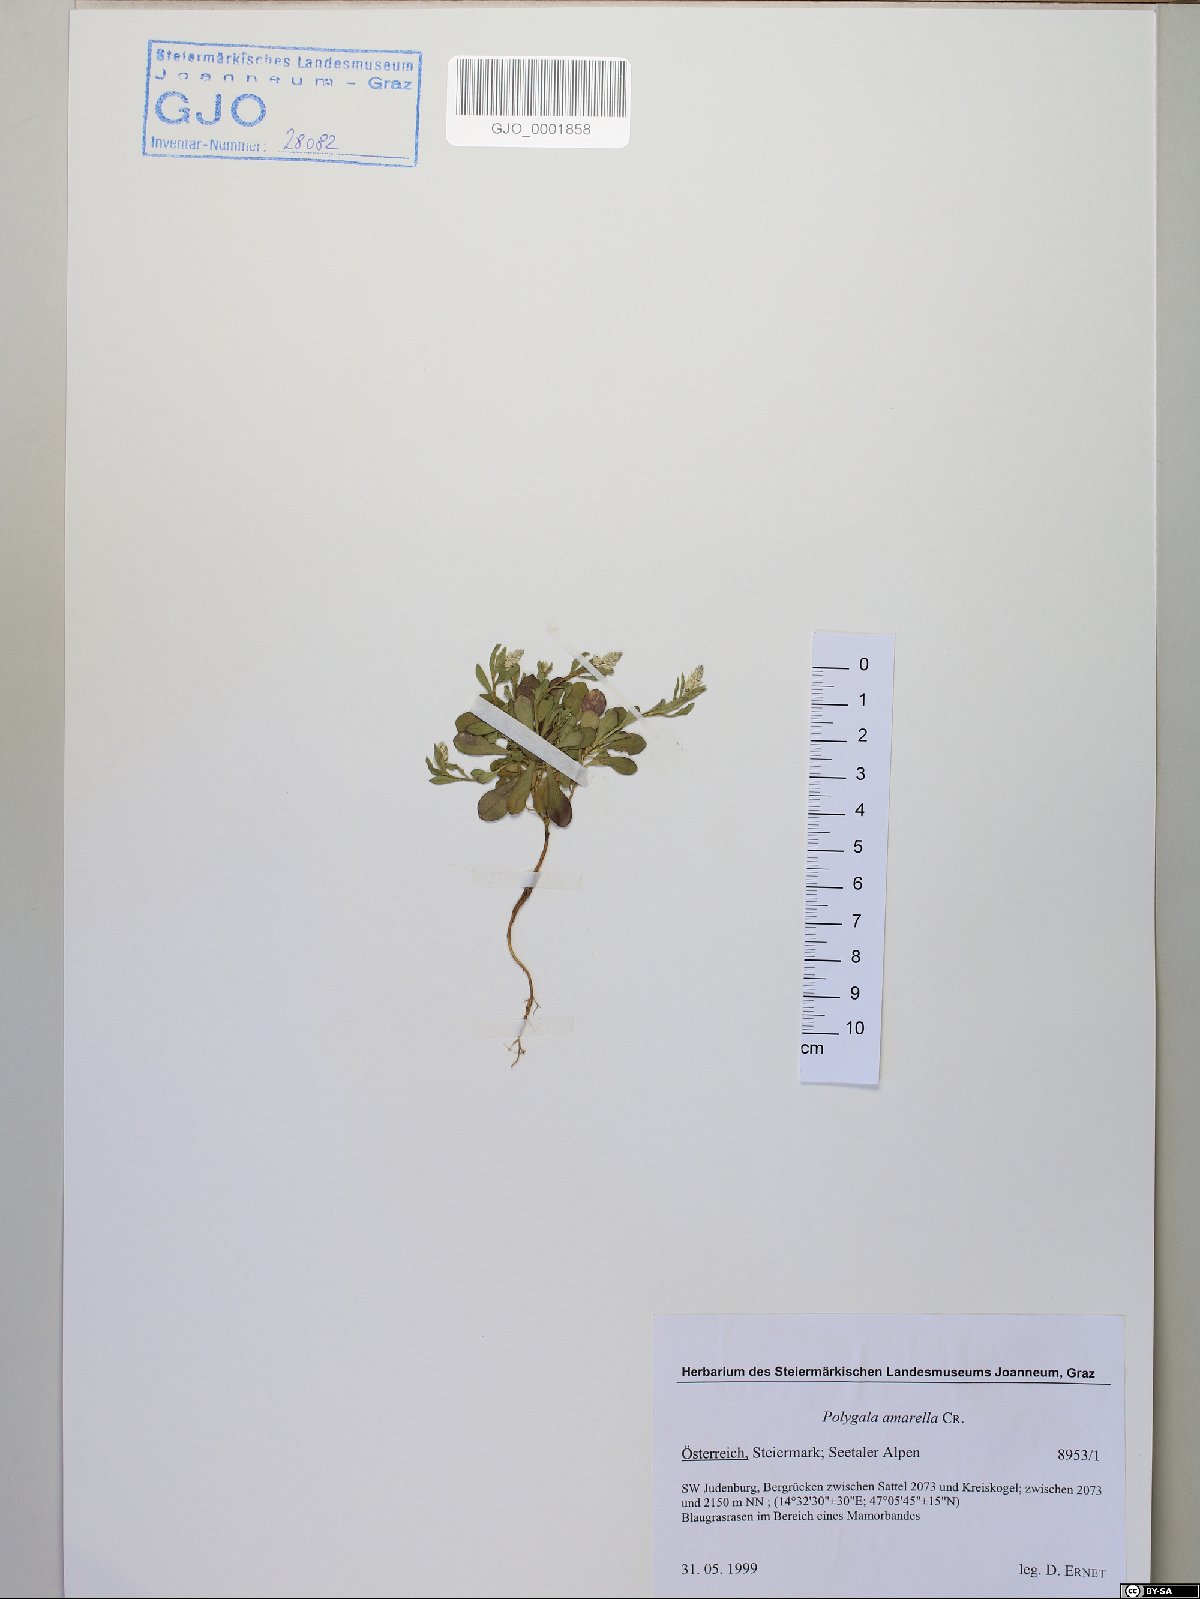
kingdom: Plantae
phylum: Tracheophyta
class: Magnoliopsida
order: Fabales
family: Polygalaceae
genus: Polygala
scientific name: Polygala amarella
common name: Dwarf milkwort
